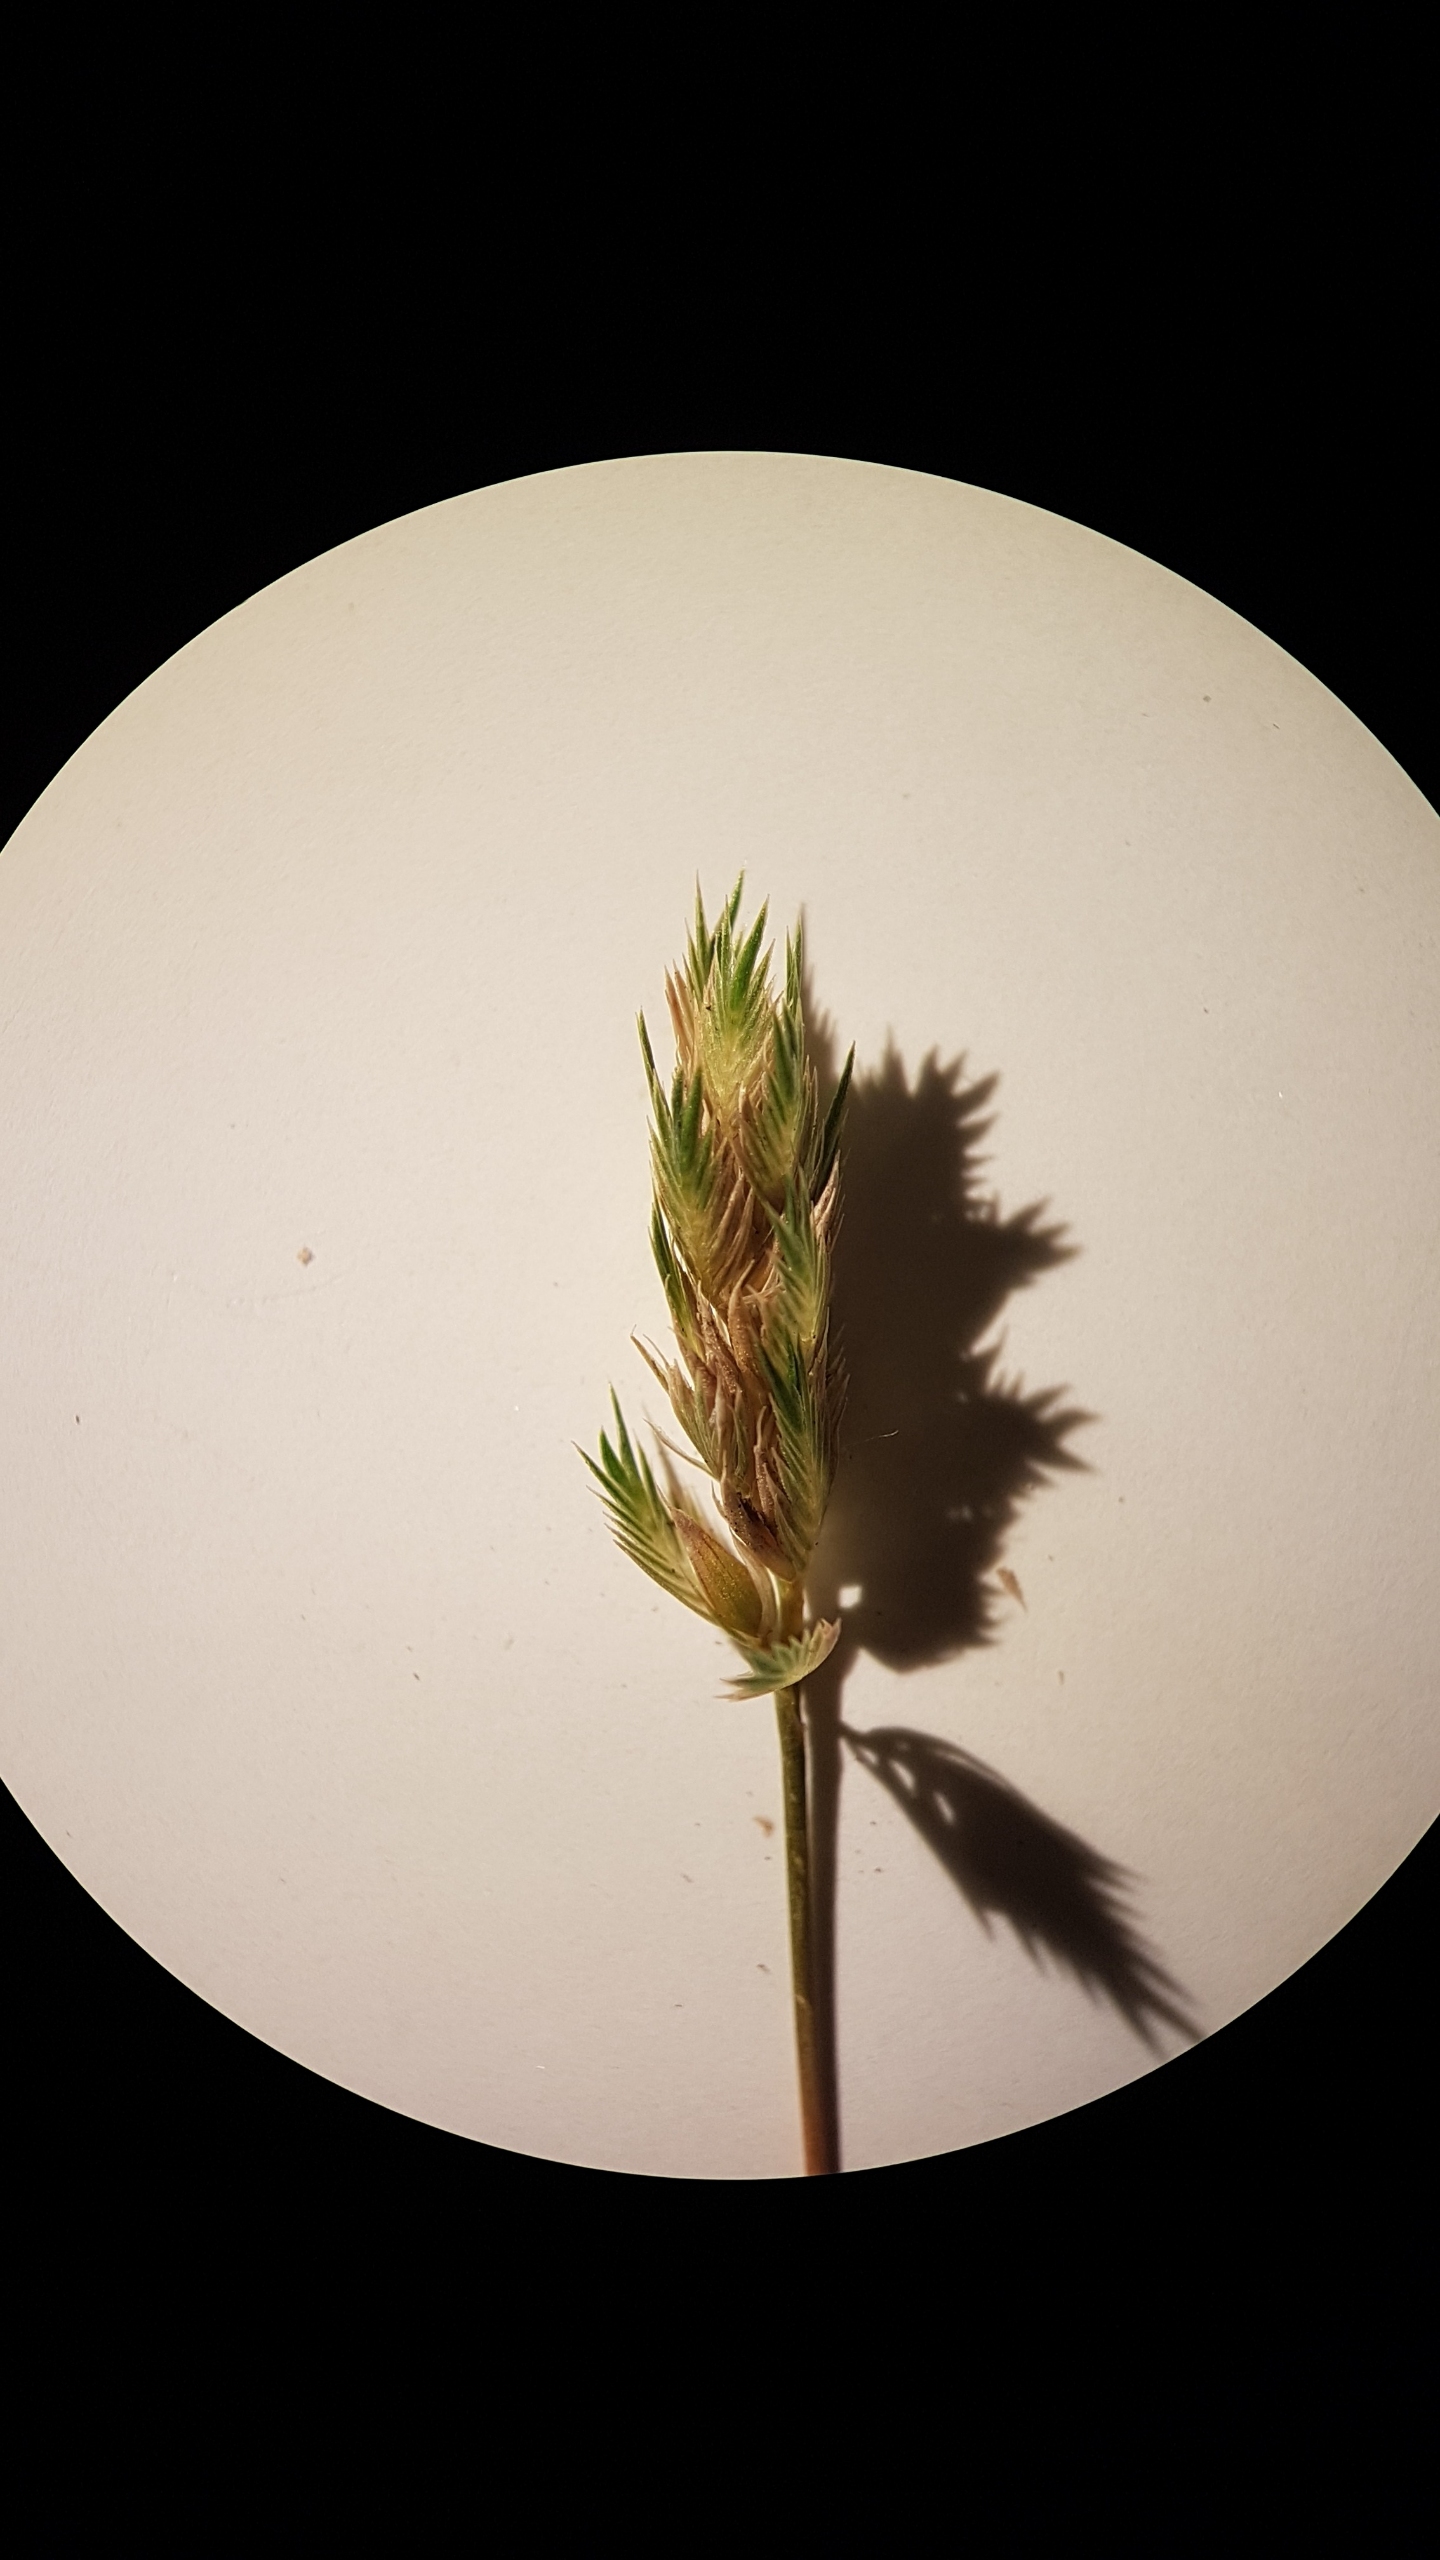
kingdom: Plantae
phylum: Tracheophyta
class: Liliopsida
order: Poales
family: Poaceae
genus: Cynosurus
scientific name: Cynosurus cristatus
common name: Kamgræs
